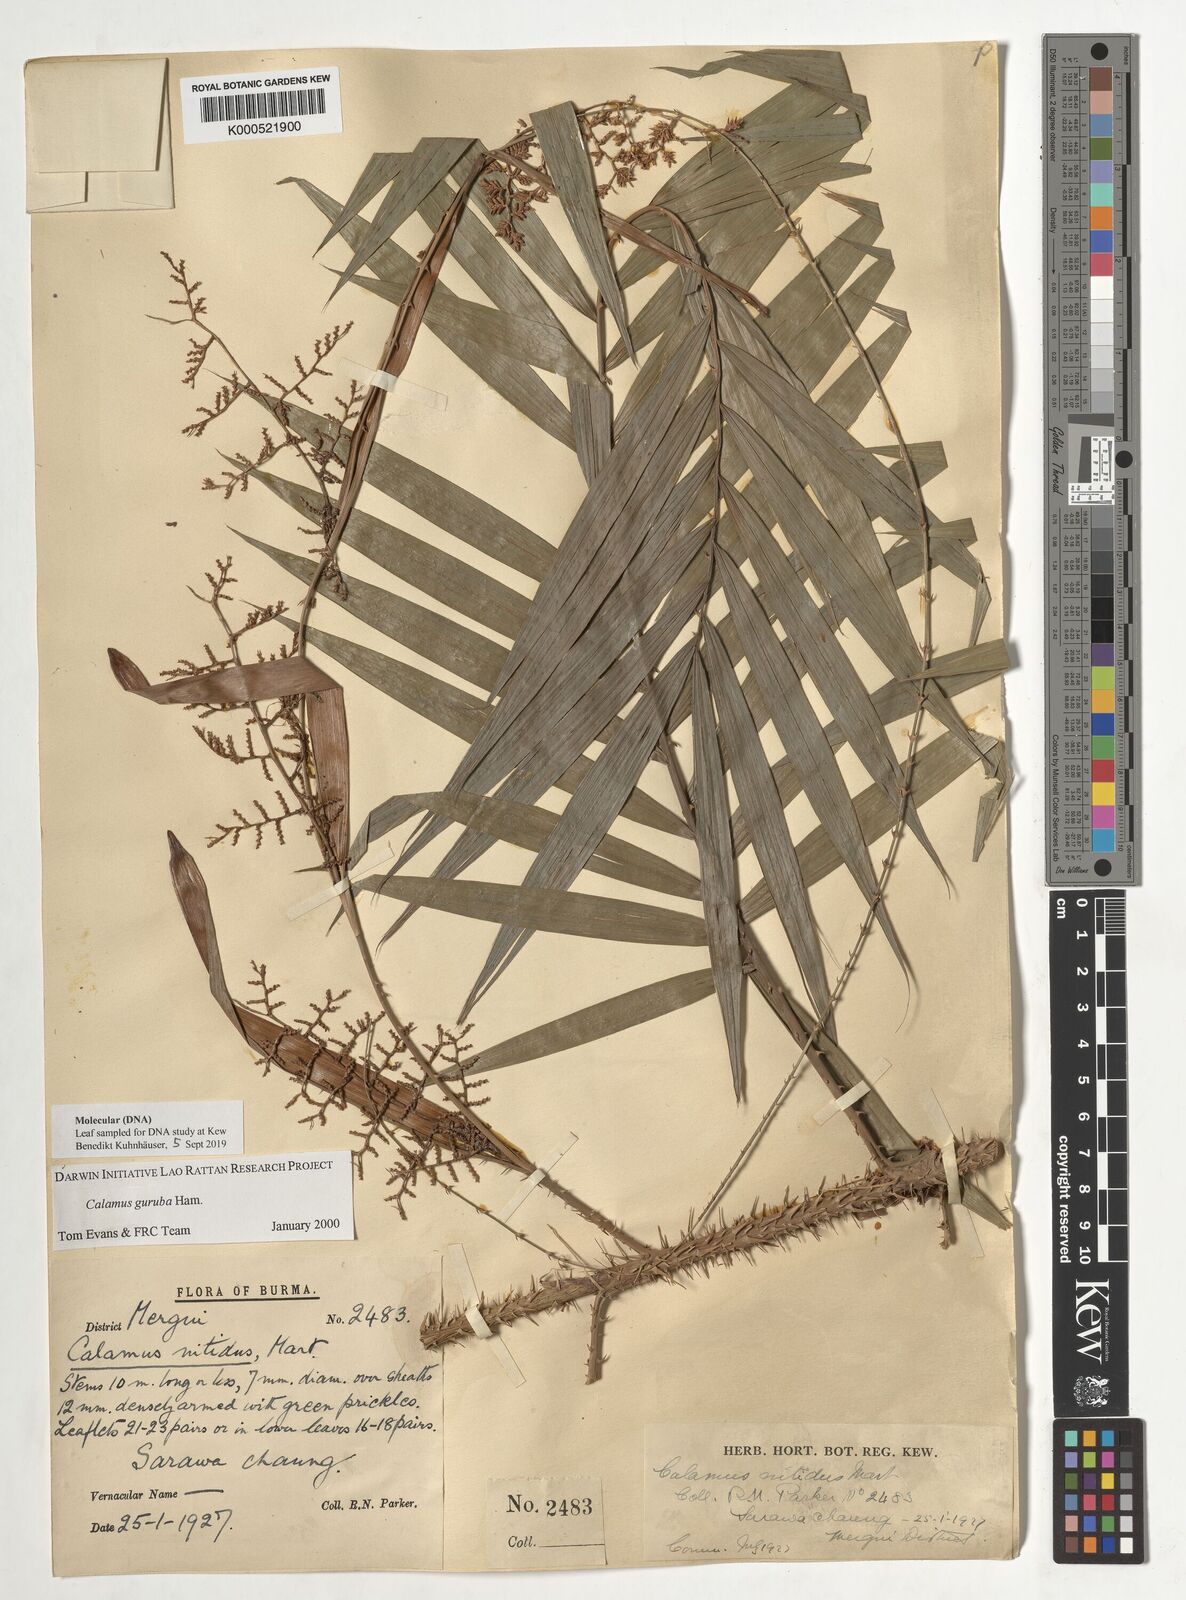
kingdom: Plantae
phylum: Tracheophyta
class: Liliopsida
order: Arecales
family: Arecaceae
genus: Calamus
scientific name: Calamus
